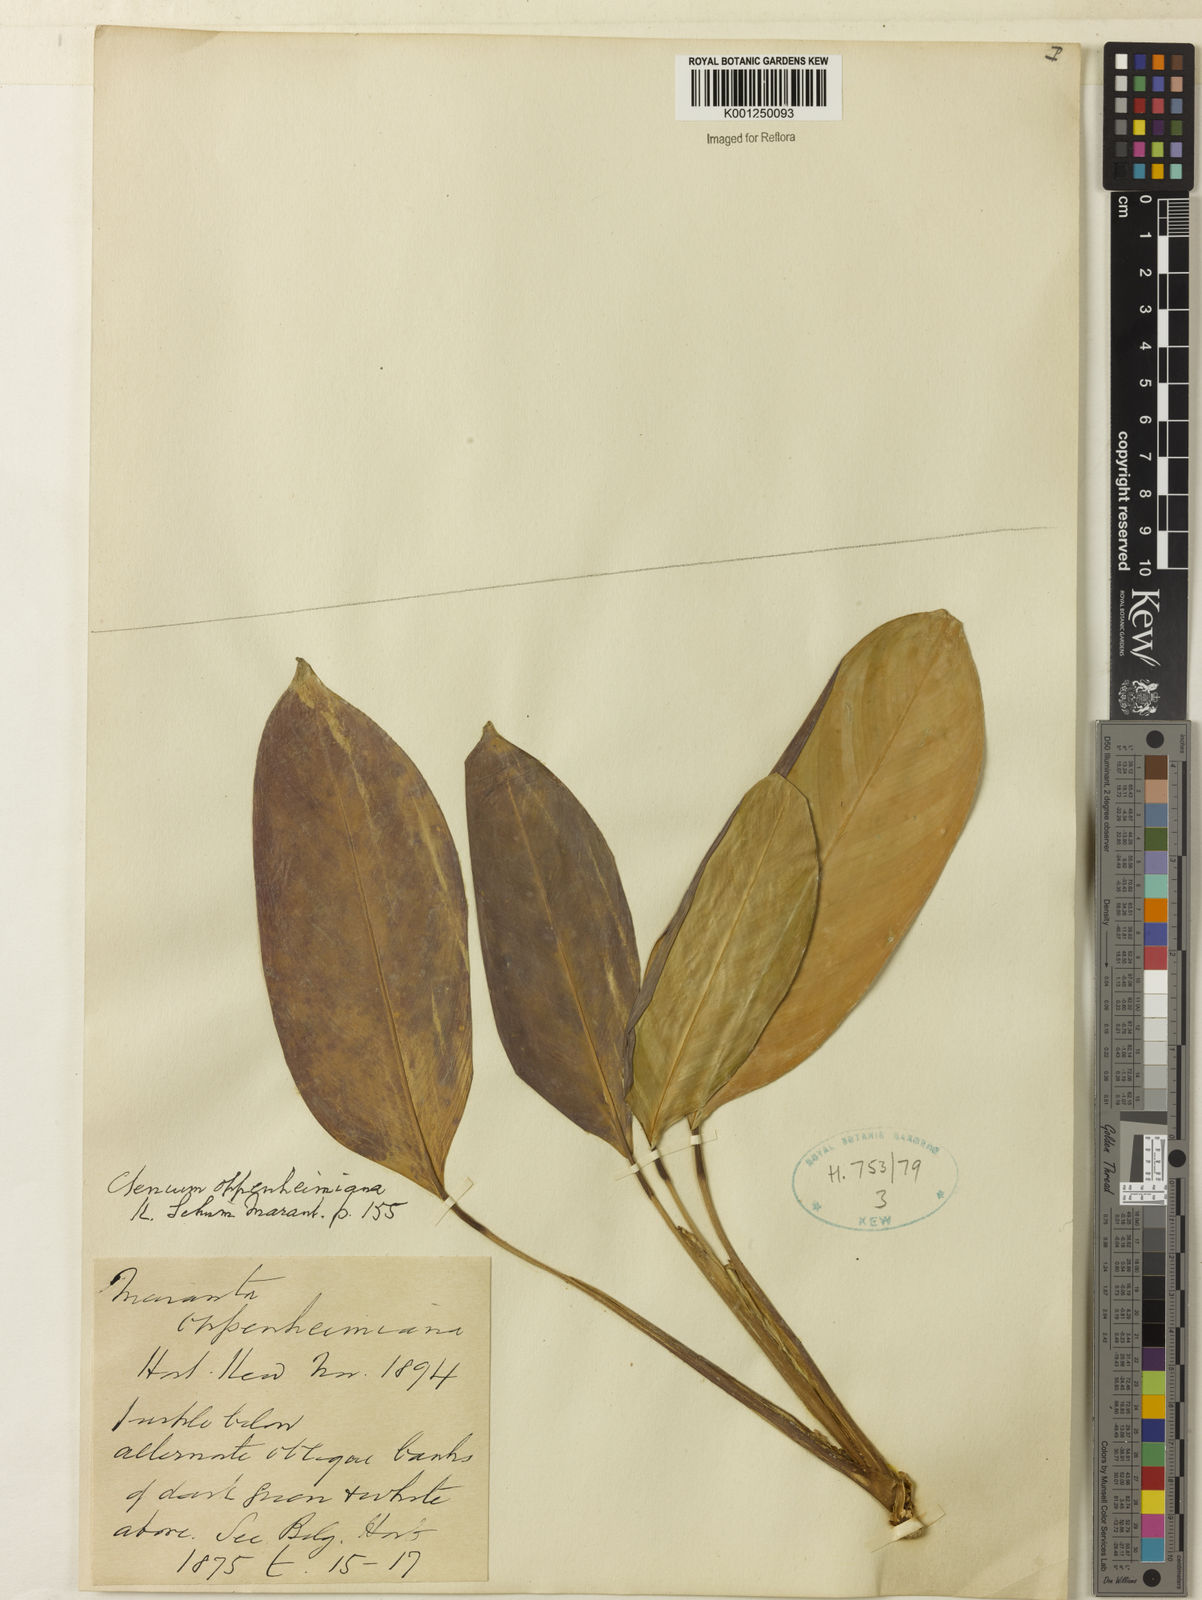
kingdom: Plantae
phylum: Tracheophyta
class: Liliopsida
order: Zingiberales
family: Marantaceae
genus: Ctenanthe
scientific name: Ctenanthe oppenheimiana
